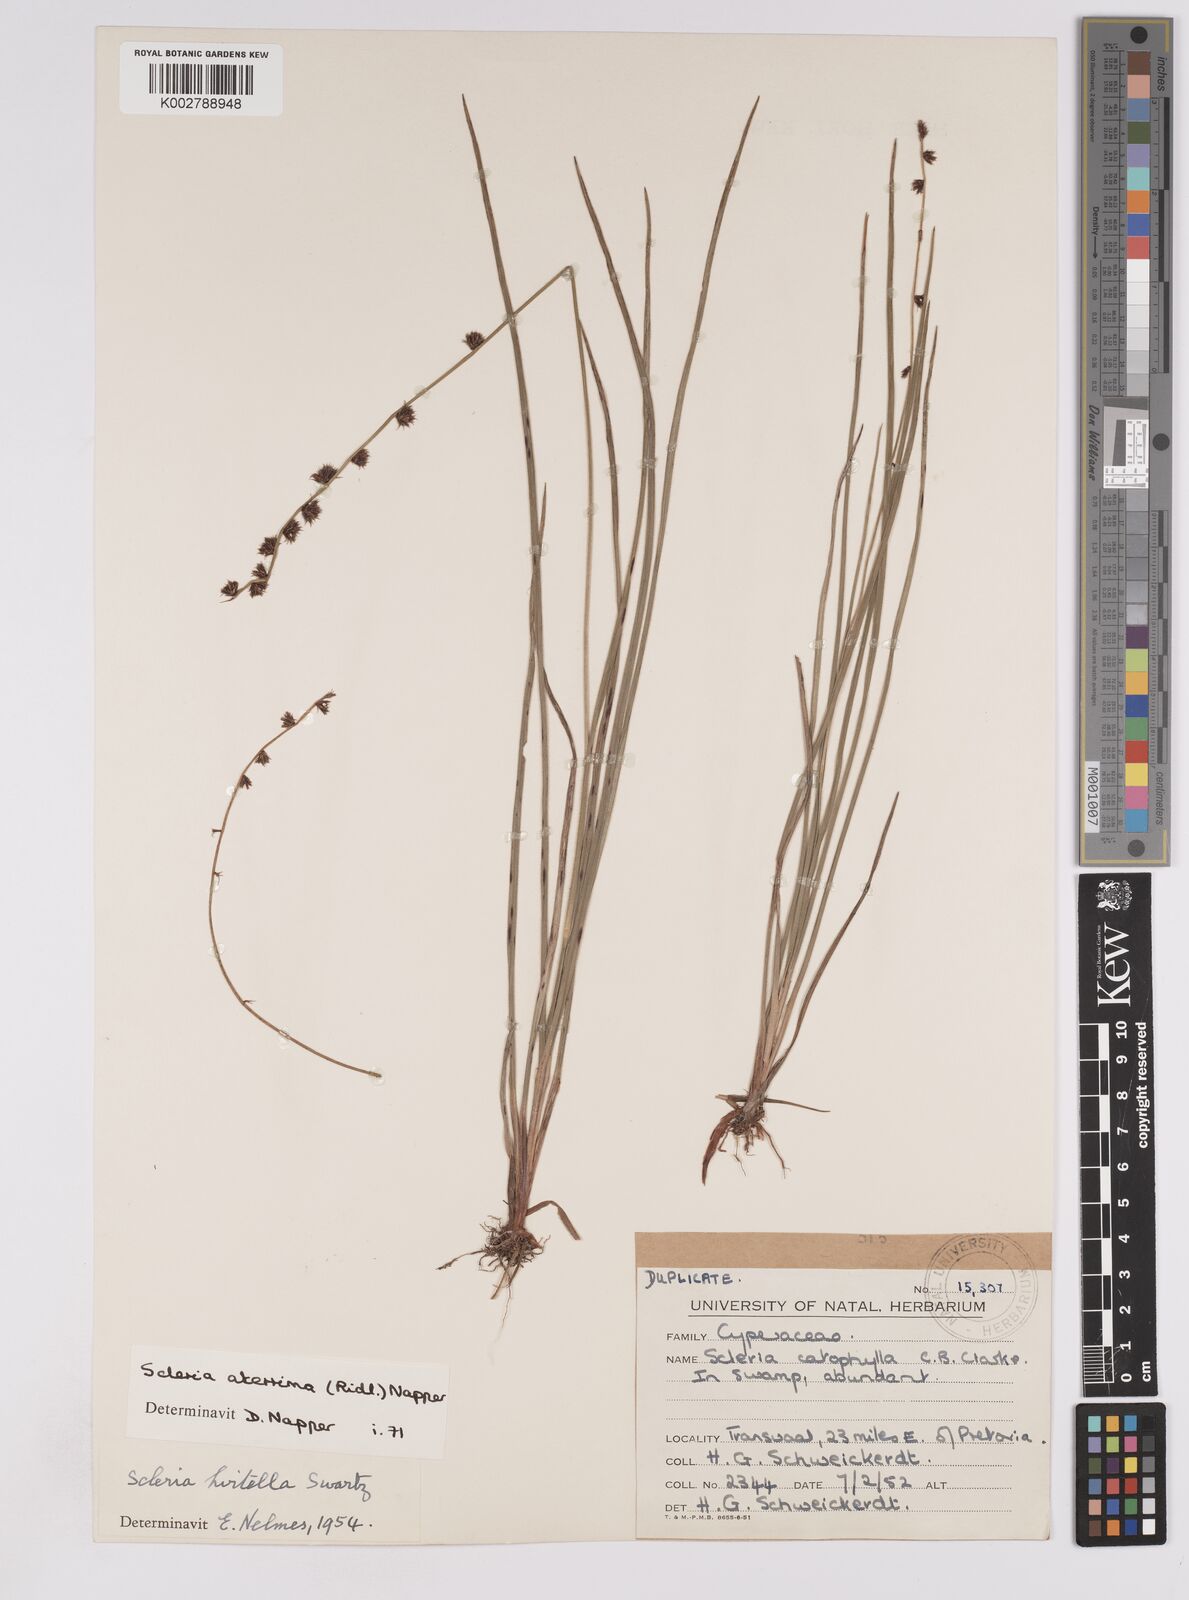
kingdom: Plantae
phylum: Tracheophyta
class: Liliopsida
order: Poales
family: Cyperaceae
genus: Scleria
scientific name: Scleria catophylla
